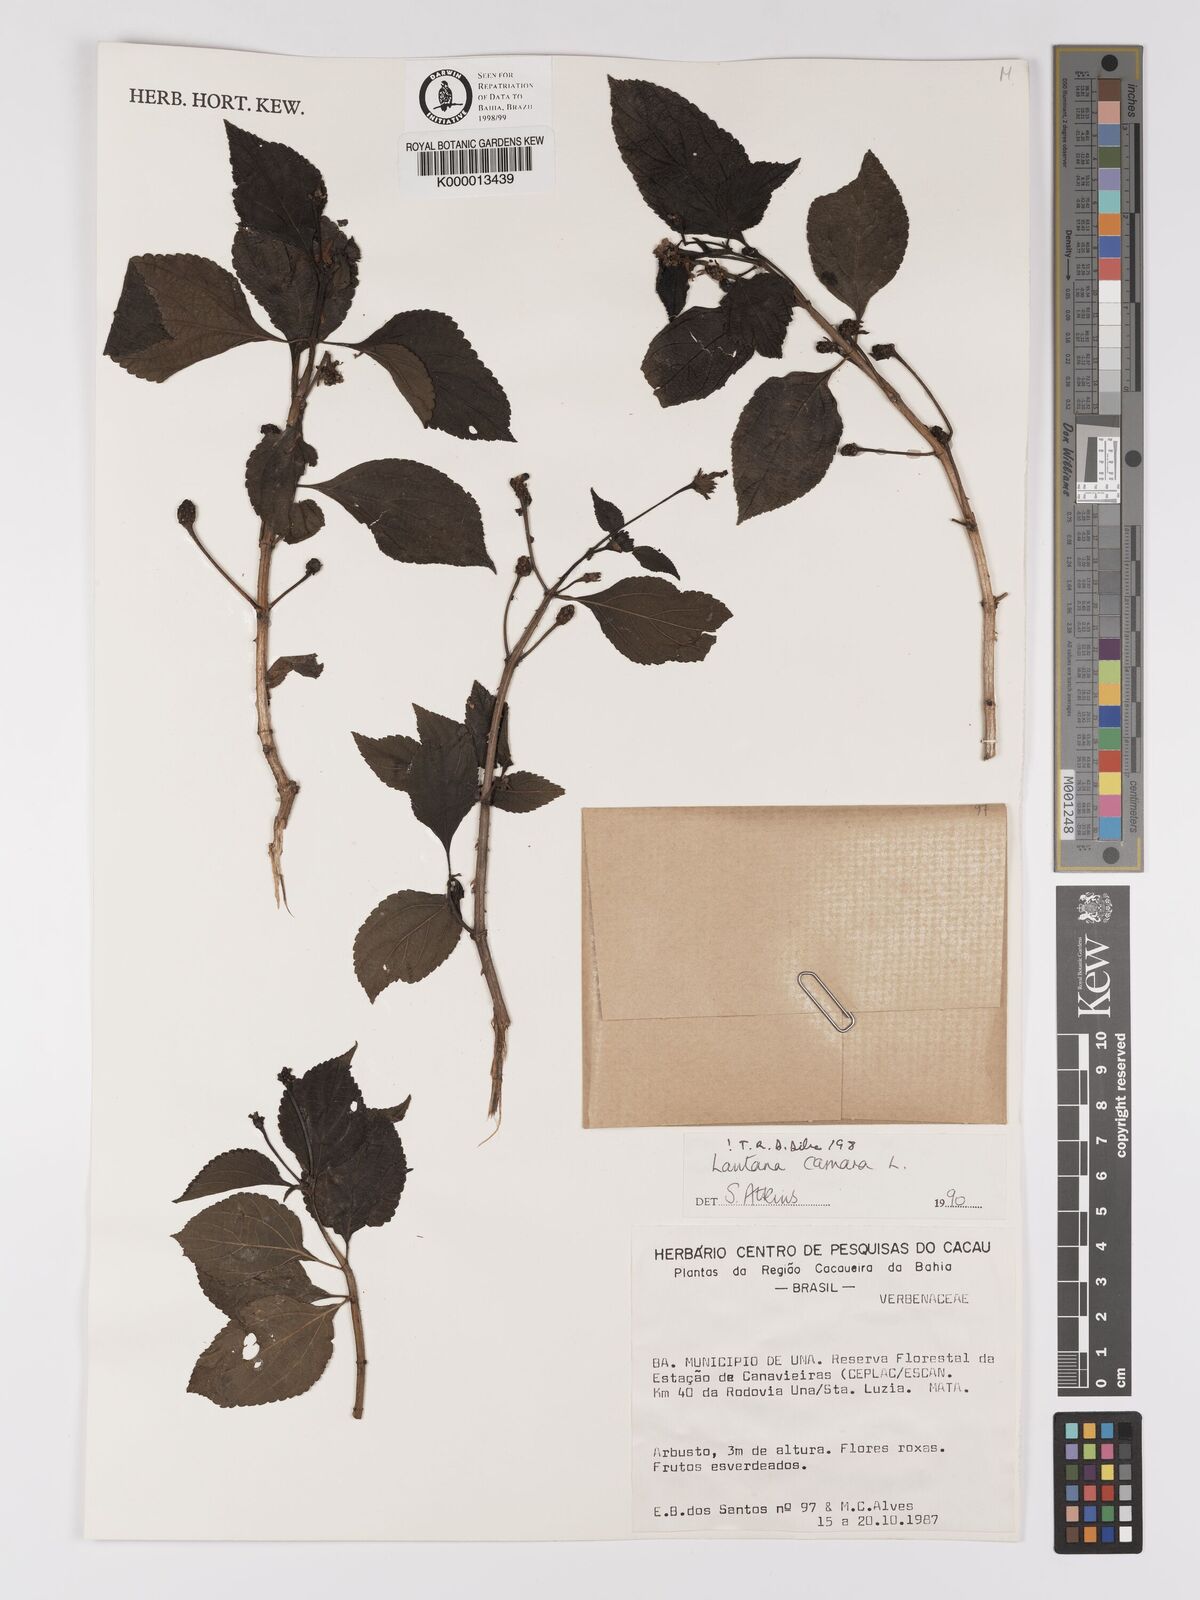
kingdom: Plantae
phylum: Tracheophyta
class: Magnoliopsida
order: Lamiales
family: Verbenaceae
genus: Lantana
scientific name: Lantana camara
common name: Lantana
